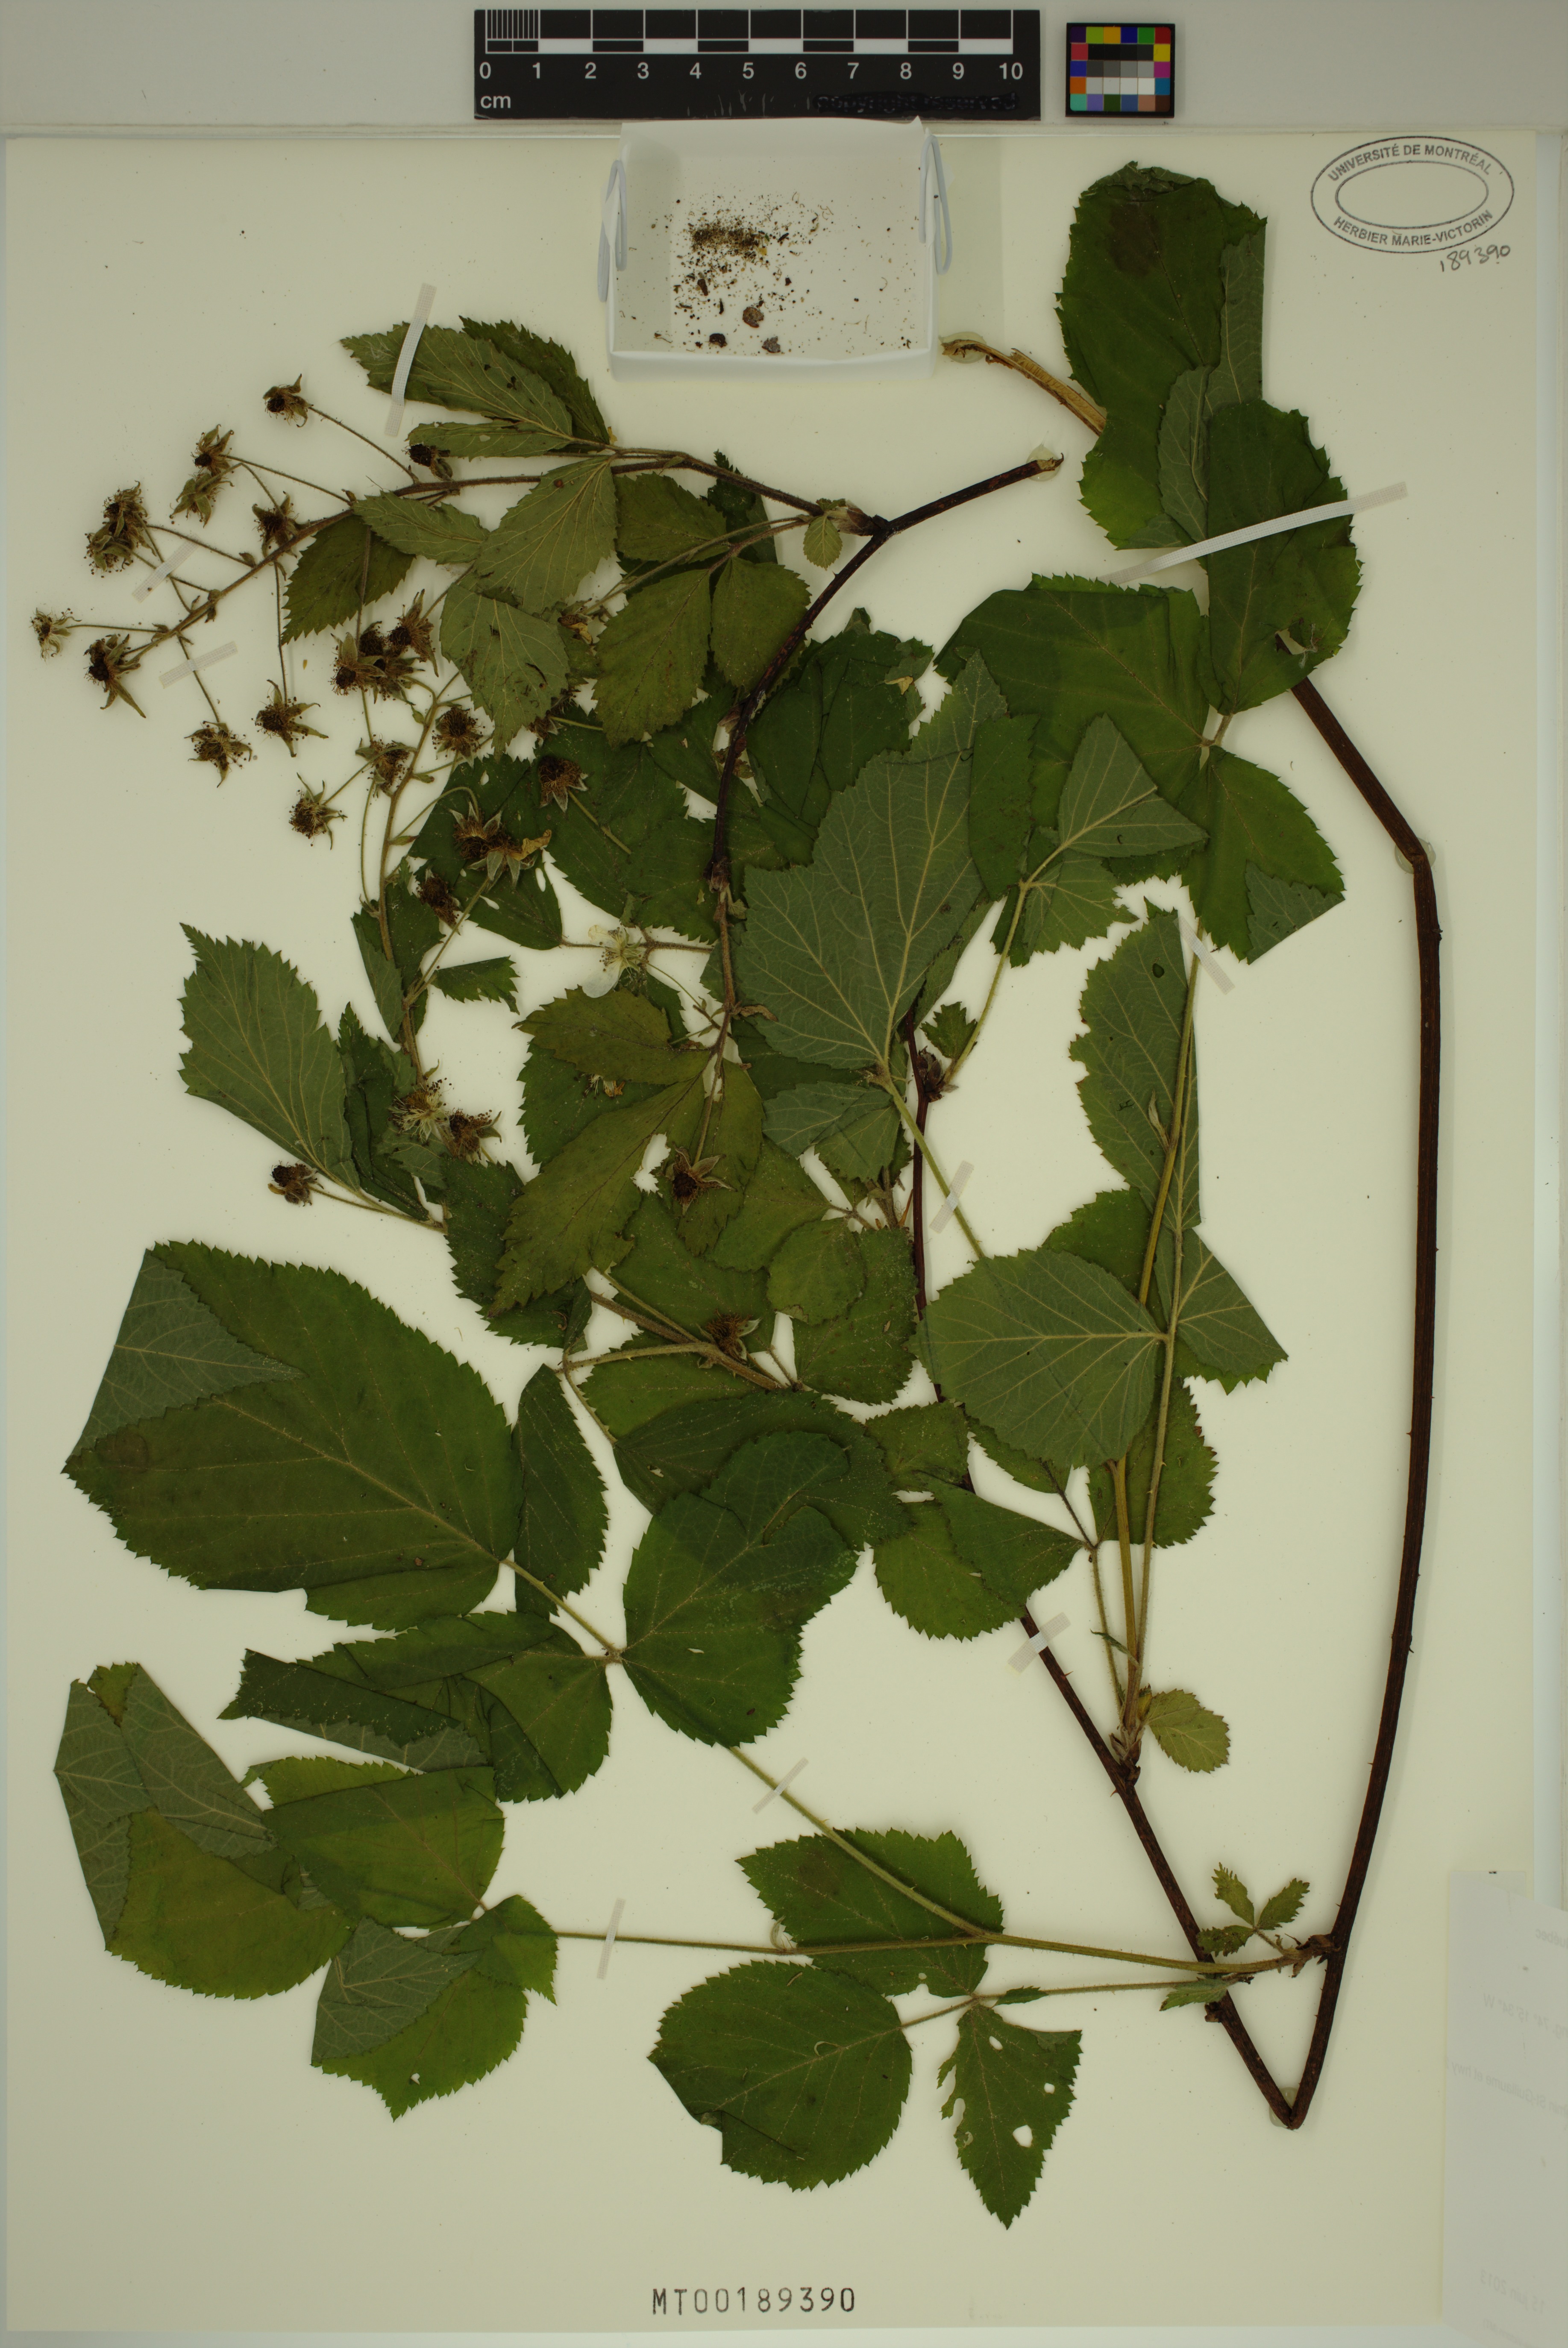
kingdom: Plantae
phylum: Tracheophyta
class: Magnoliopsida
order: Rosales
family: Rosaceae
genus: Rubus
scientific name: Rubus occidentalis
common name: Black raspberry
